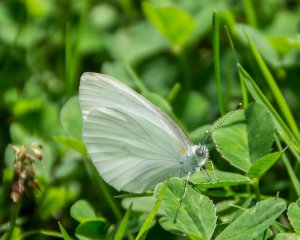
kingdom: Animalia
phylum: Arthropoda
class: Insecta
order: Lepidoptera
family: Pieridae
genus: Pieris
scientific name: Pieris oleracea
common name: Mustard White
